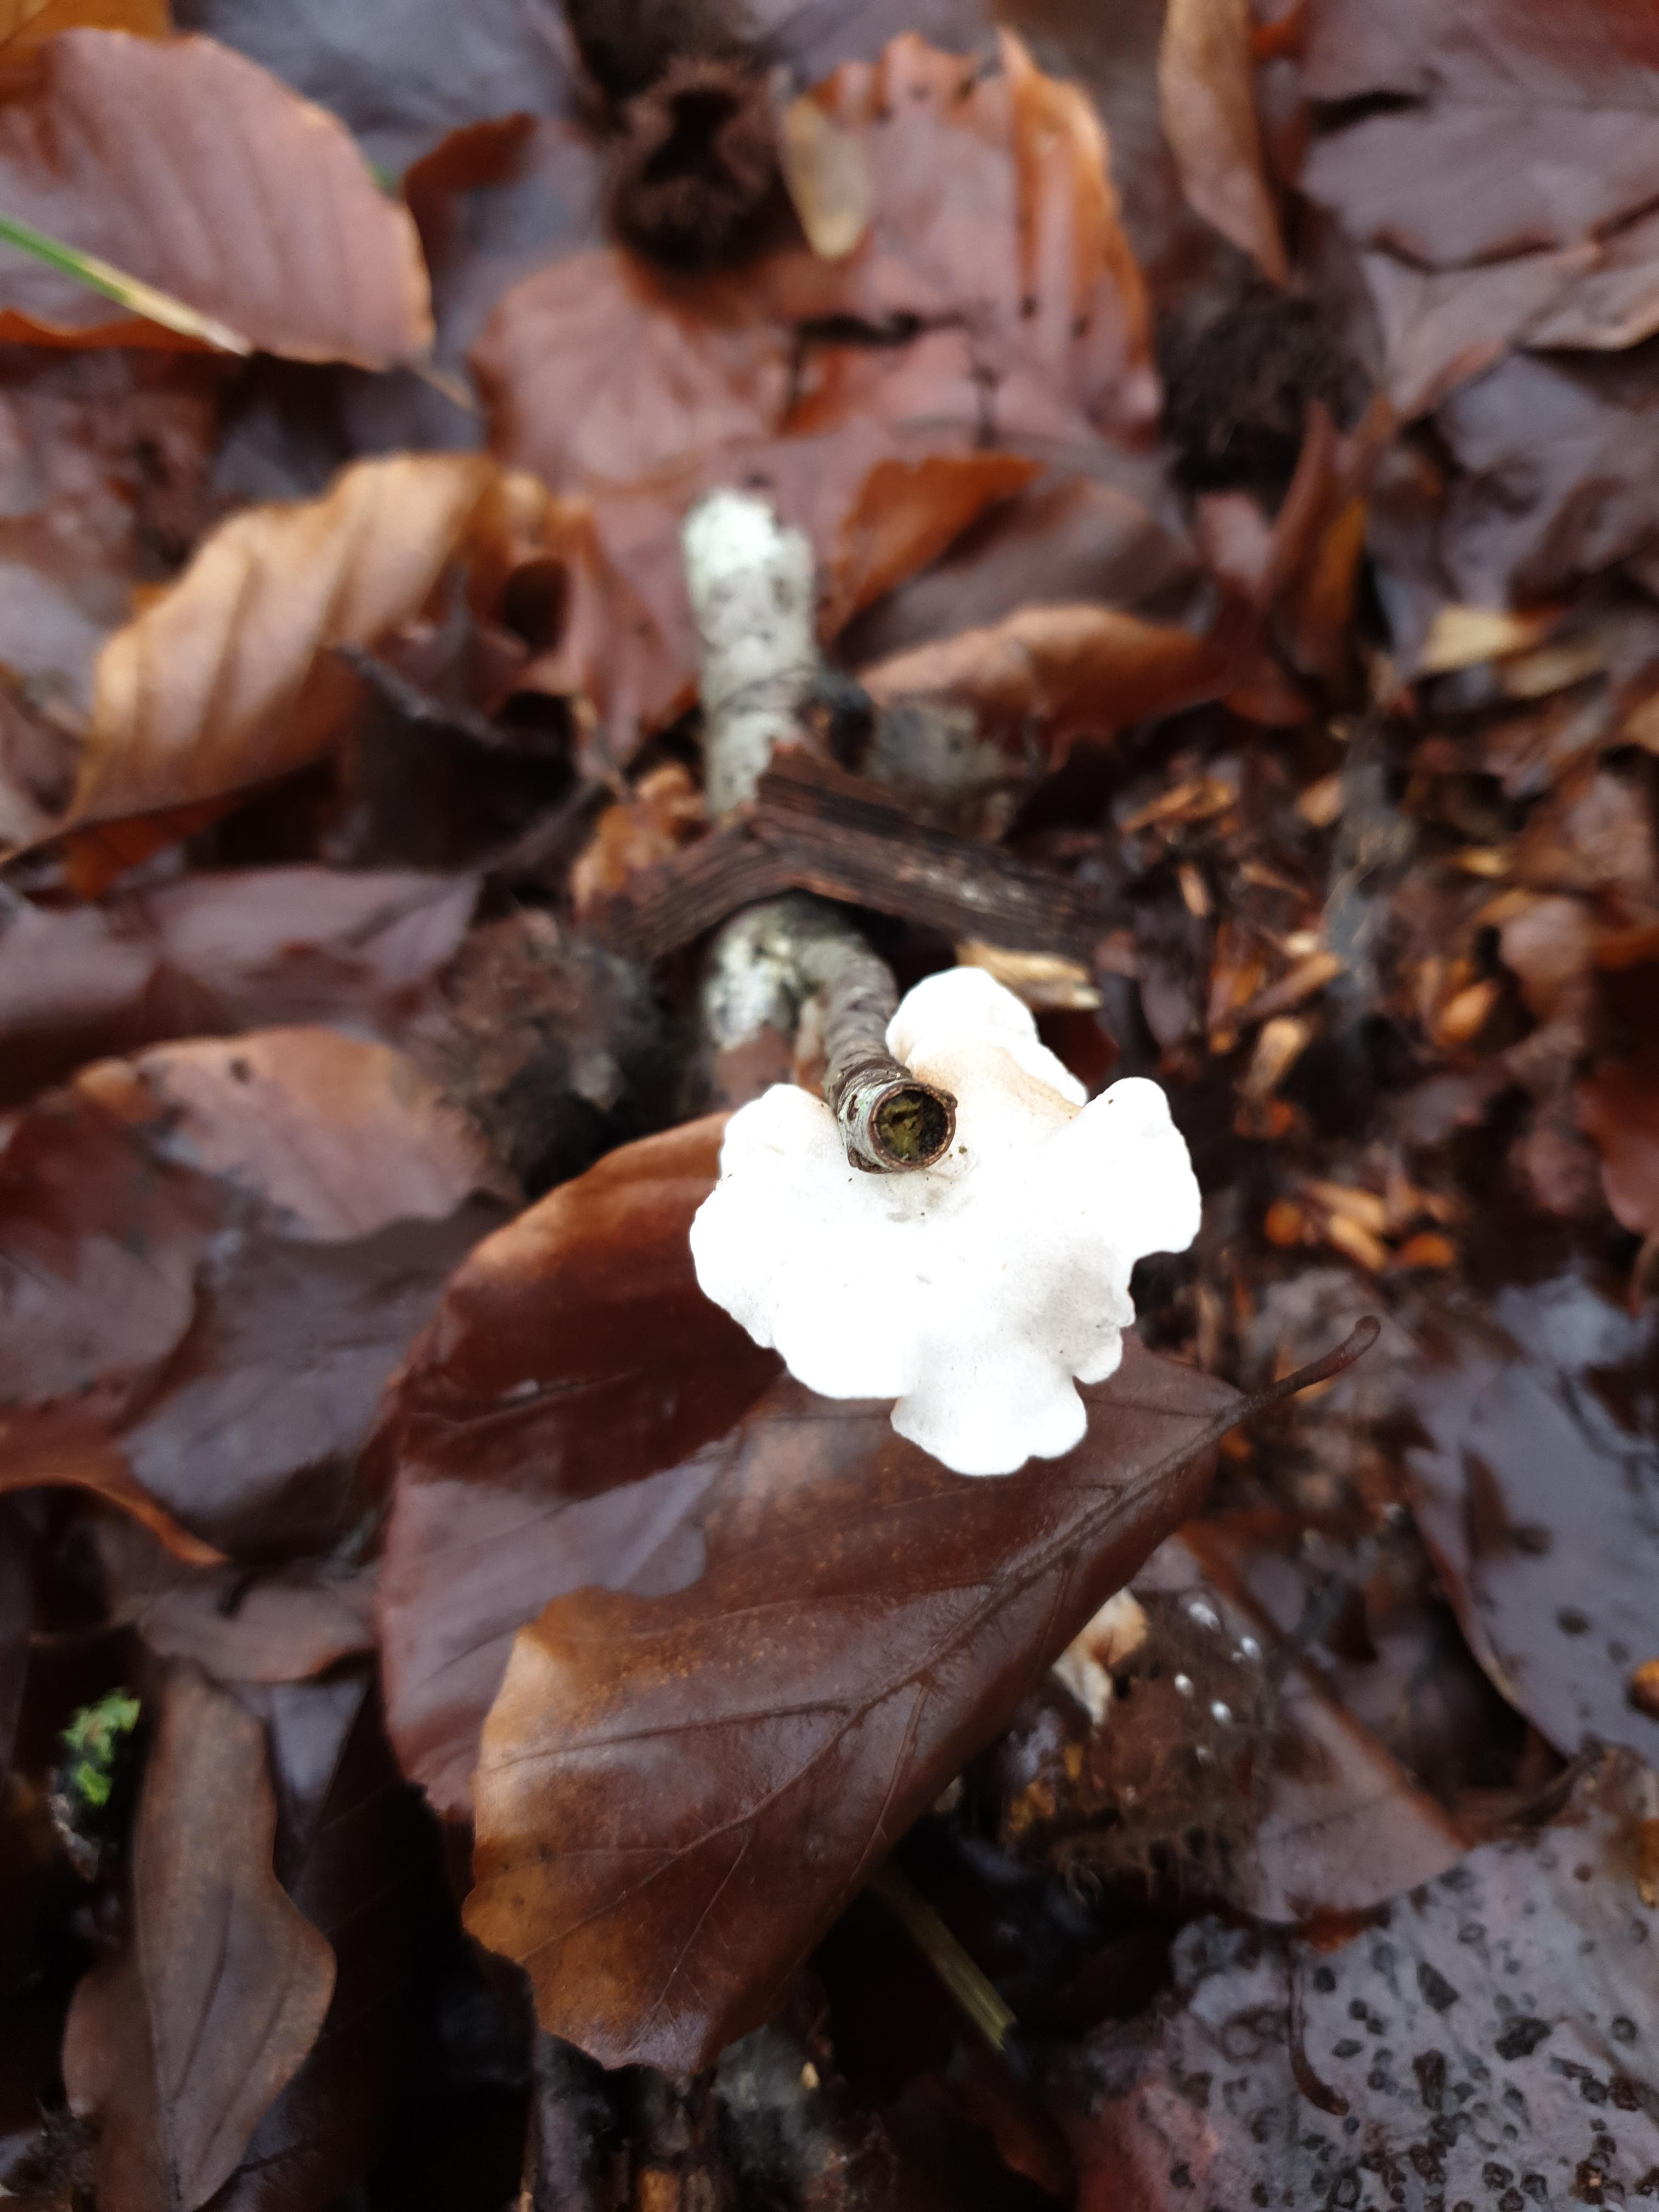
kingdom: Fungi
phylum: Basidiomycota
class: Agaricomycetes
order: Agaricales
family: Crepidotaceae
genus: Crepidotus
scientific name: Crepidotus
